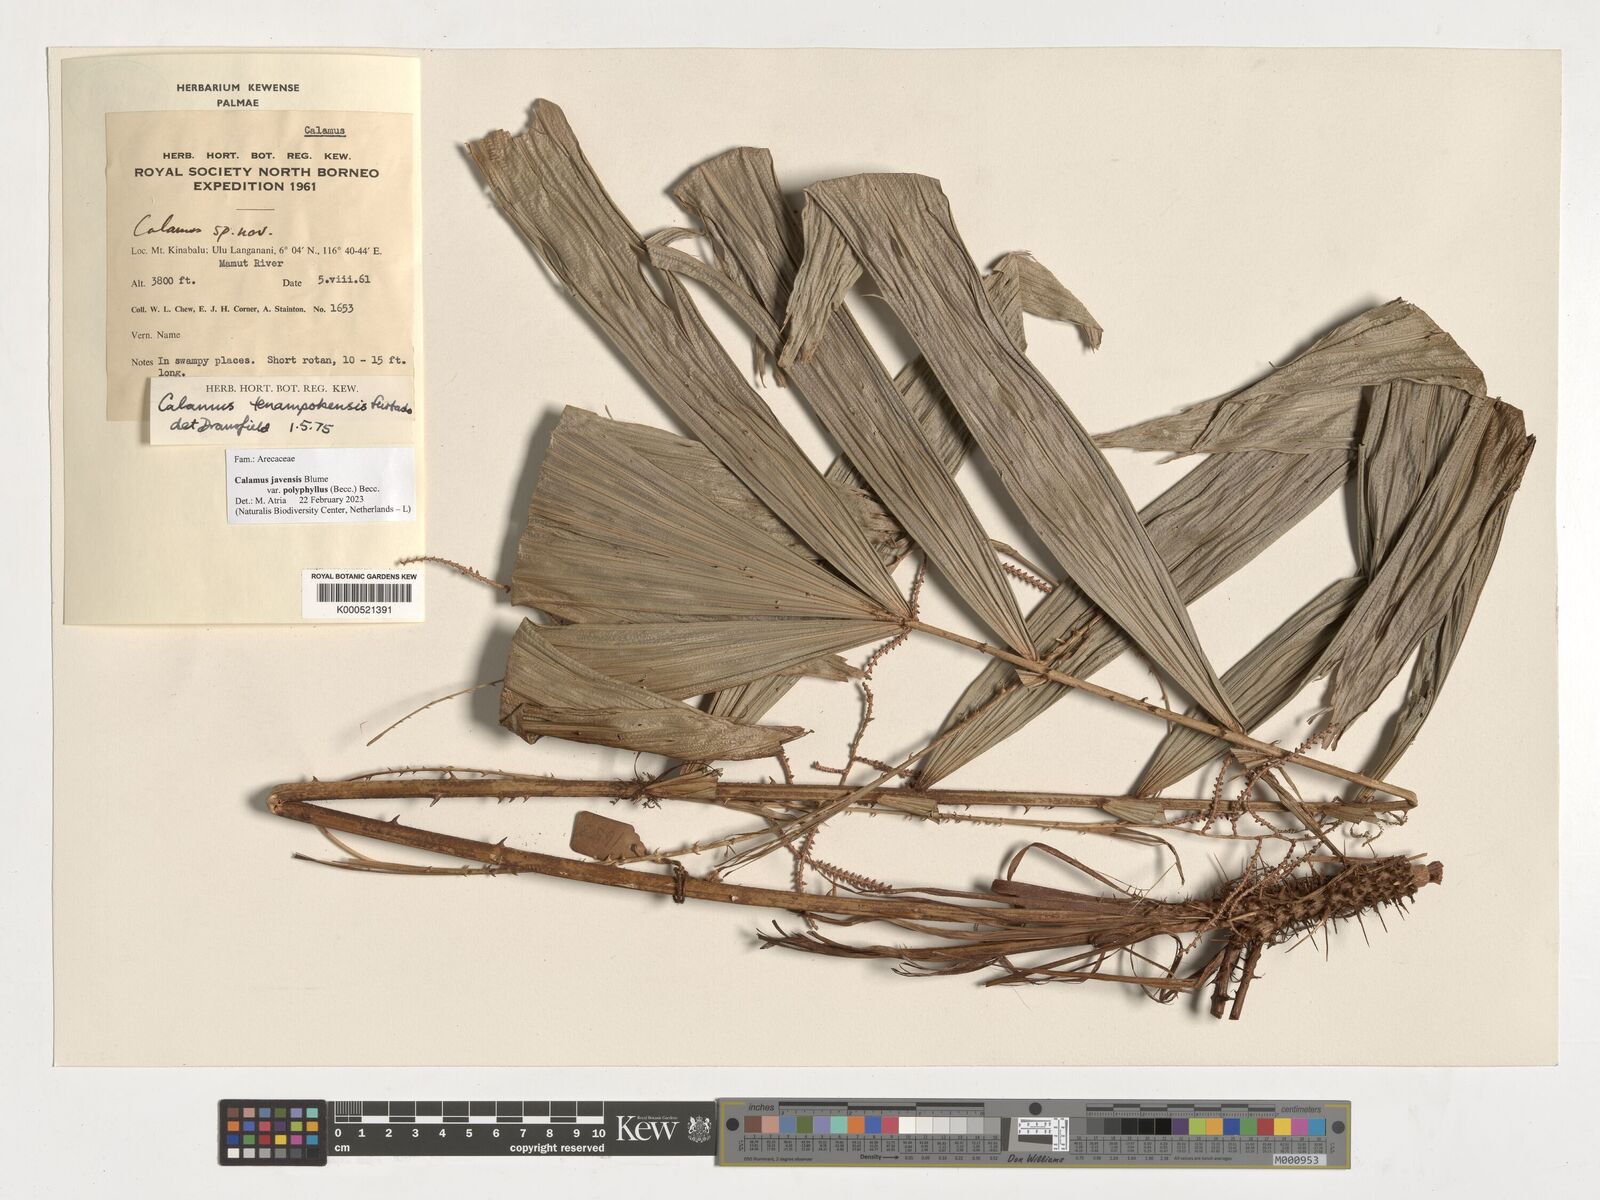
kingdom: Plantae
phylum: Tracheophyta
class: Liliopsida
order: Arecales
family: Arecaceae
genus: Calamus
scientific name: Calamus javensis
